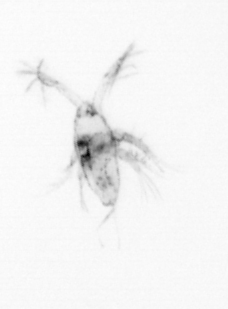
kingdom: Animalia
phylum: Arthropoda
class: Copepoda
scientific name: Copepoda
